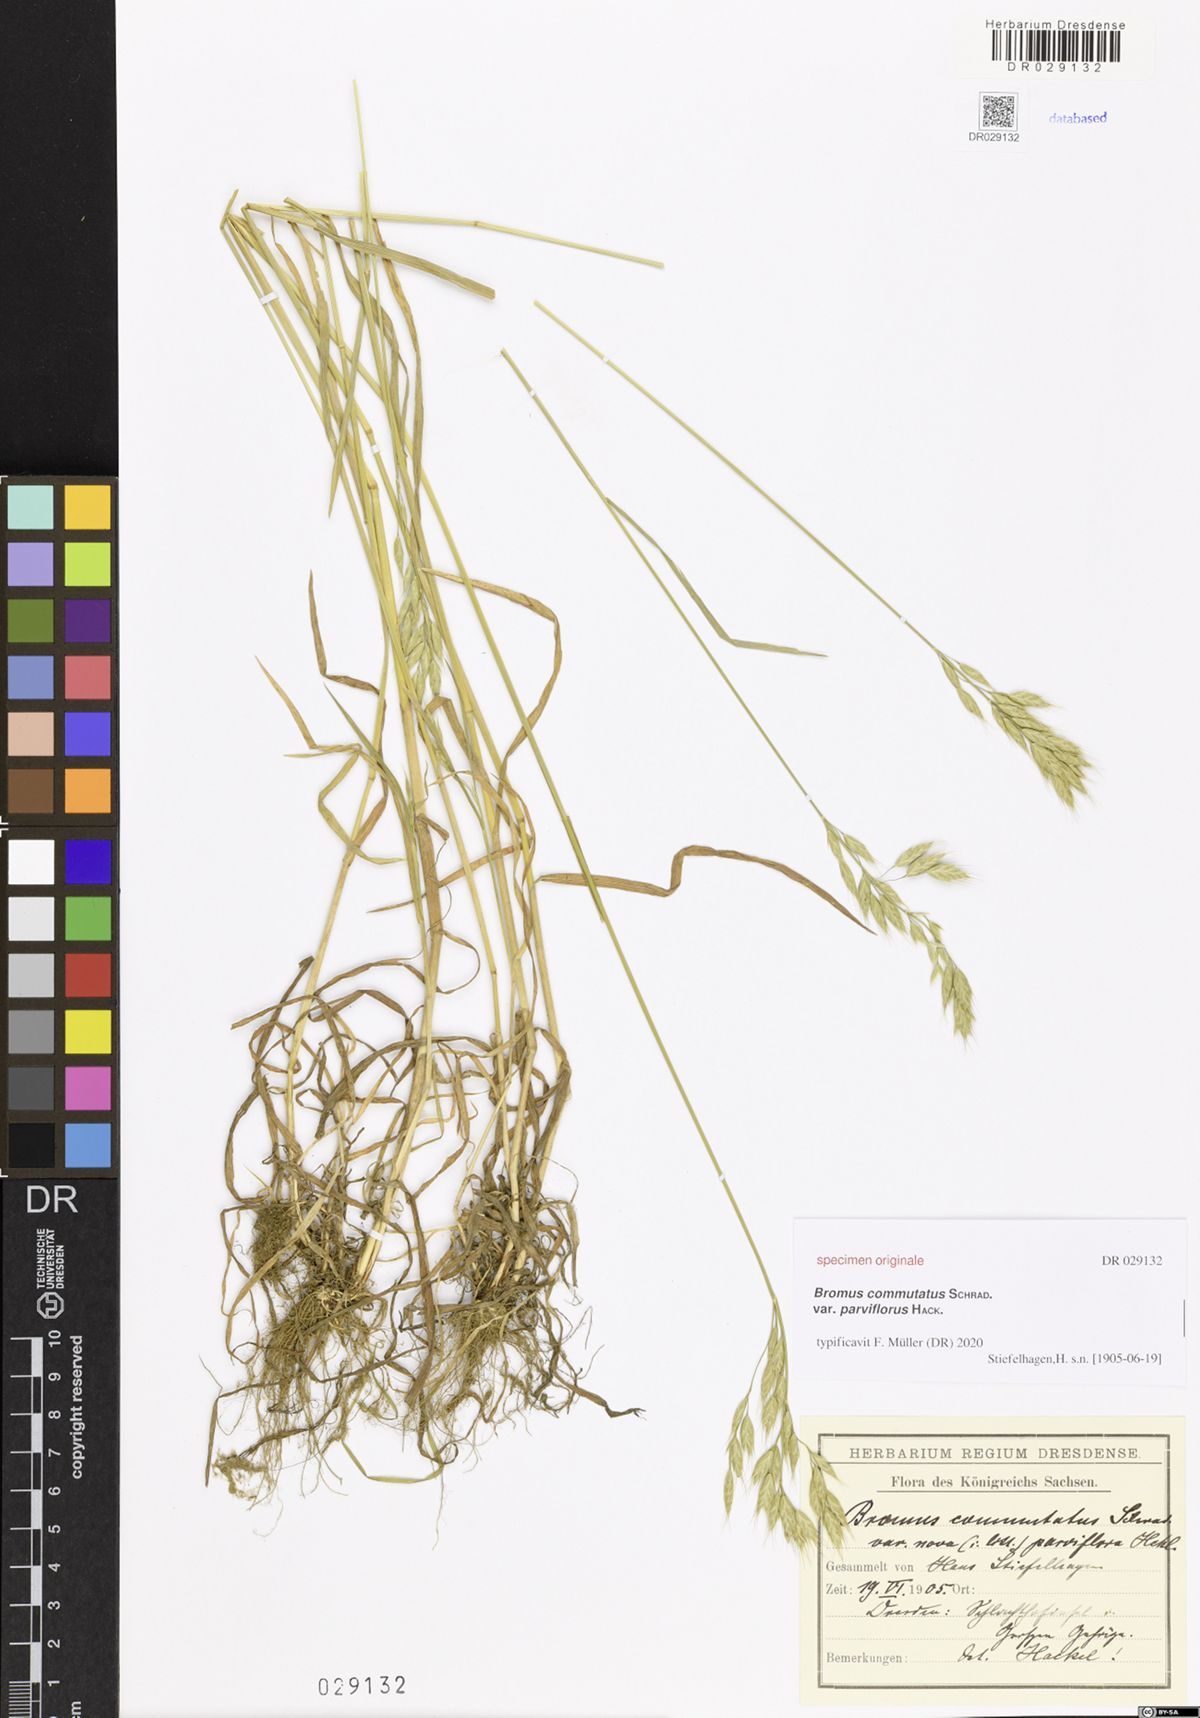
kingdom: Plantae
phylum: Tracheophyta
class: Liliopsida
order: Poales
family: Poaceae
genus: Bromus
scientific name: Bromus commutatus
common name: Meadow brome
